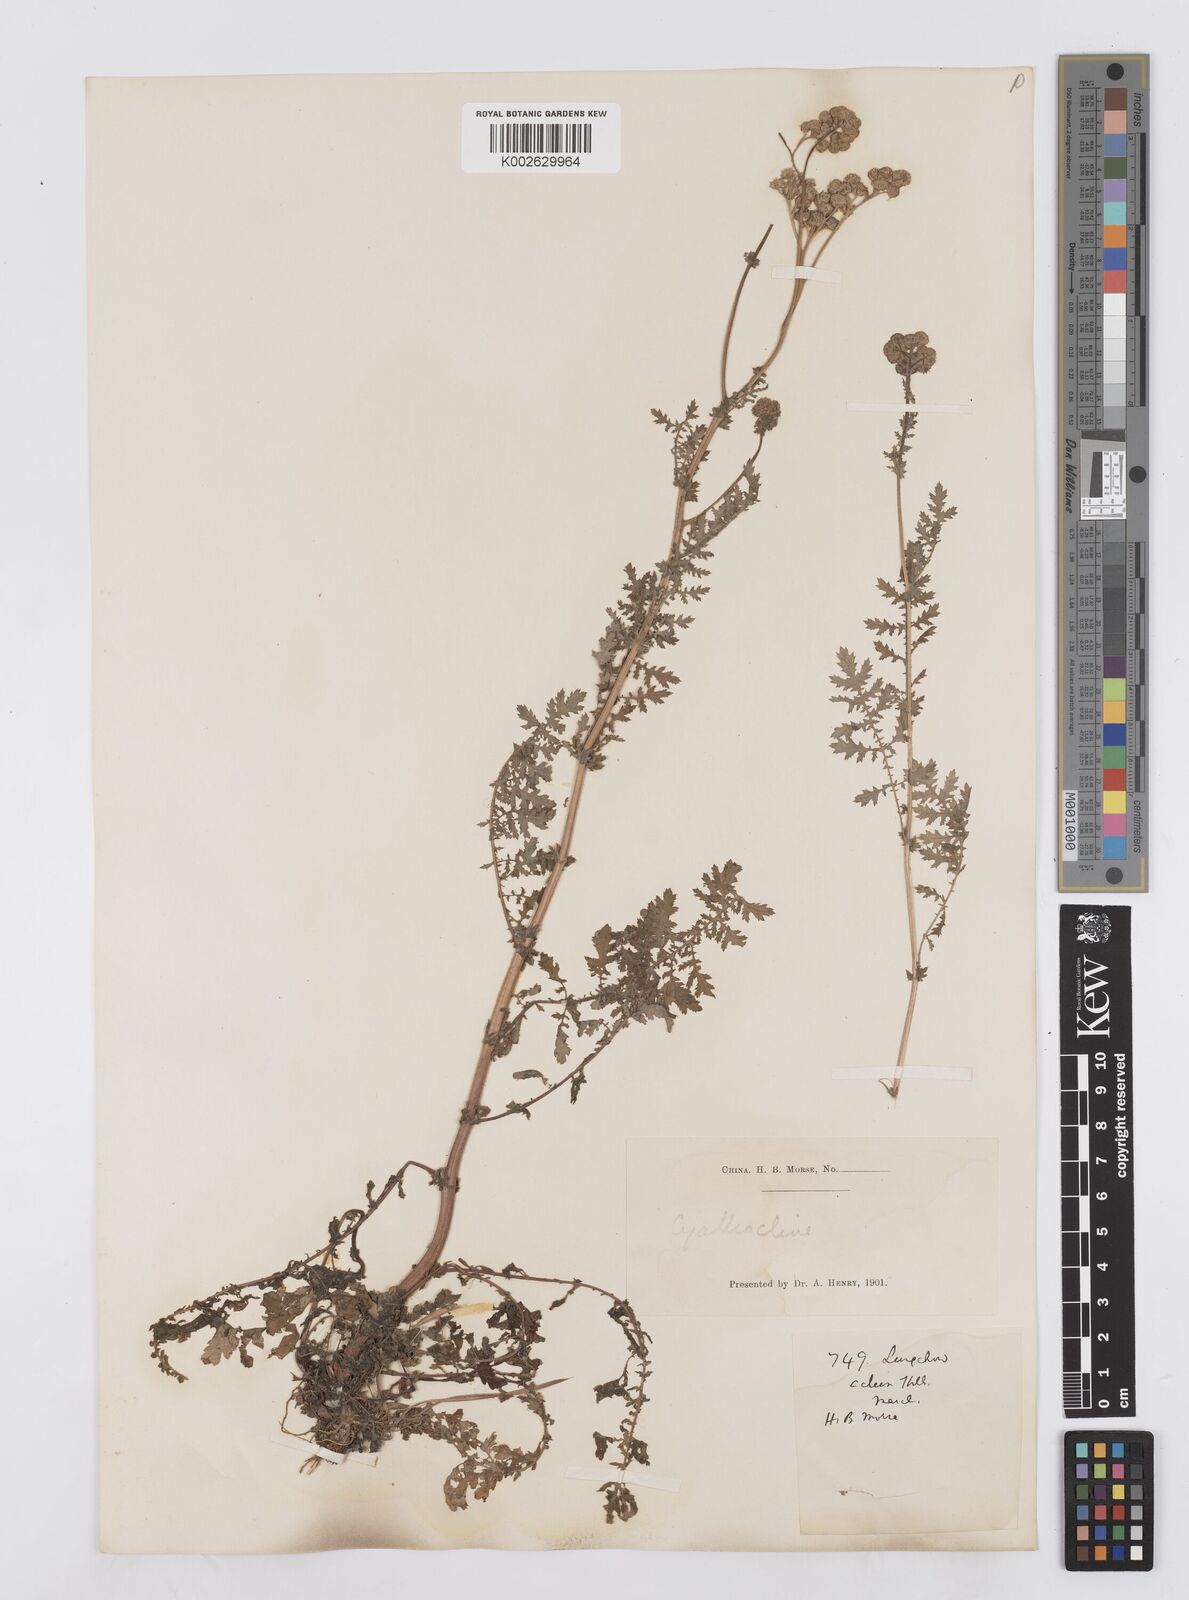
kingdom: Plantae
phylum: Tracheophyta
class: Magnoliopsida
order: Asterales
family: Asteraceae
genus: Cyathocline
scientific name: Cyathocline purpurea
